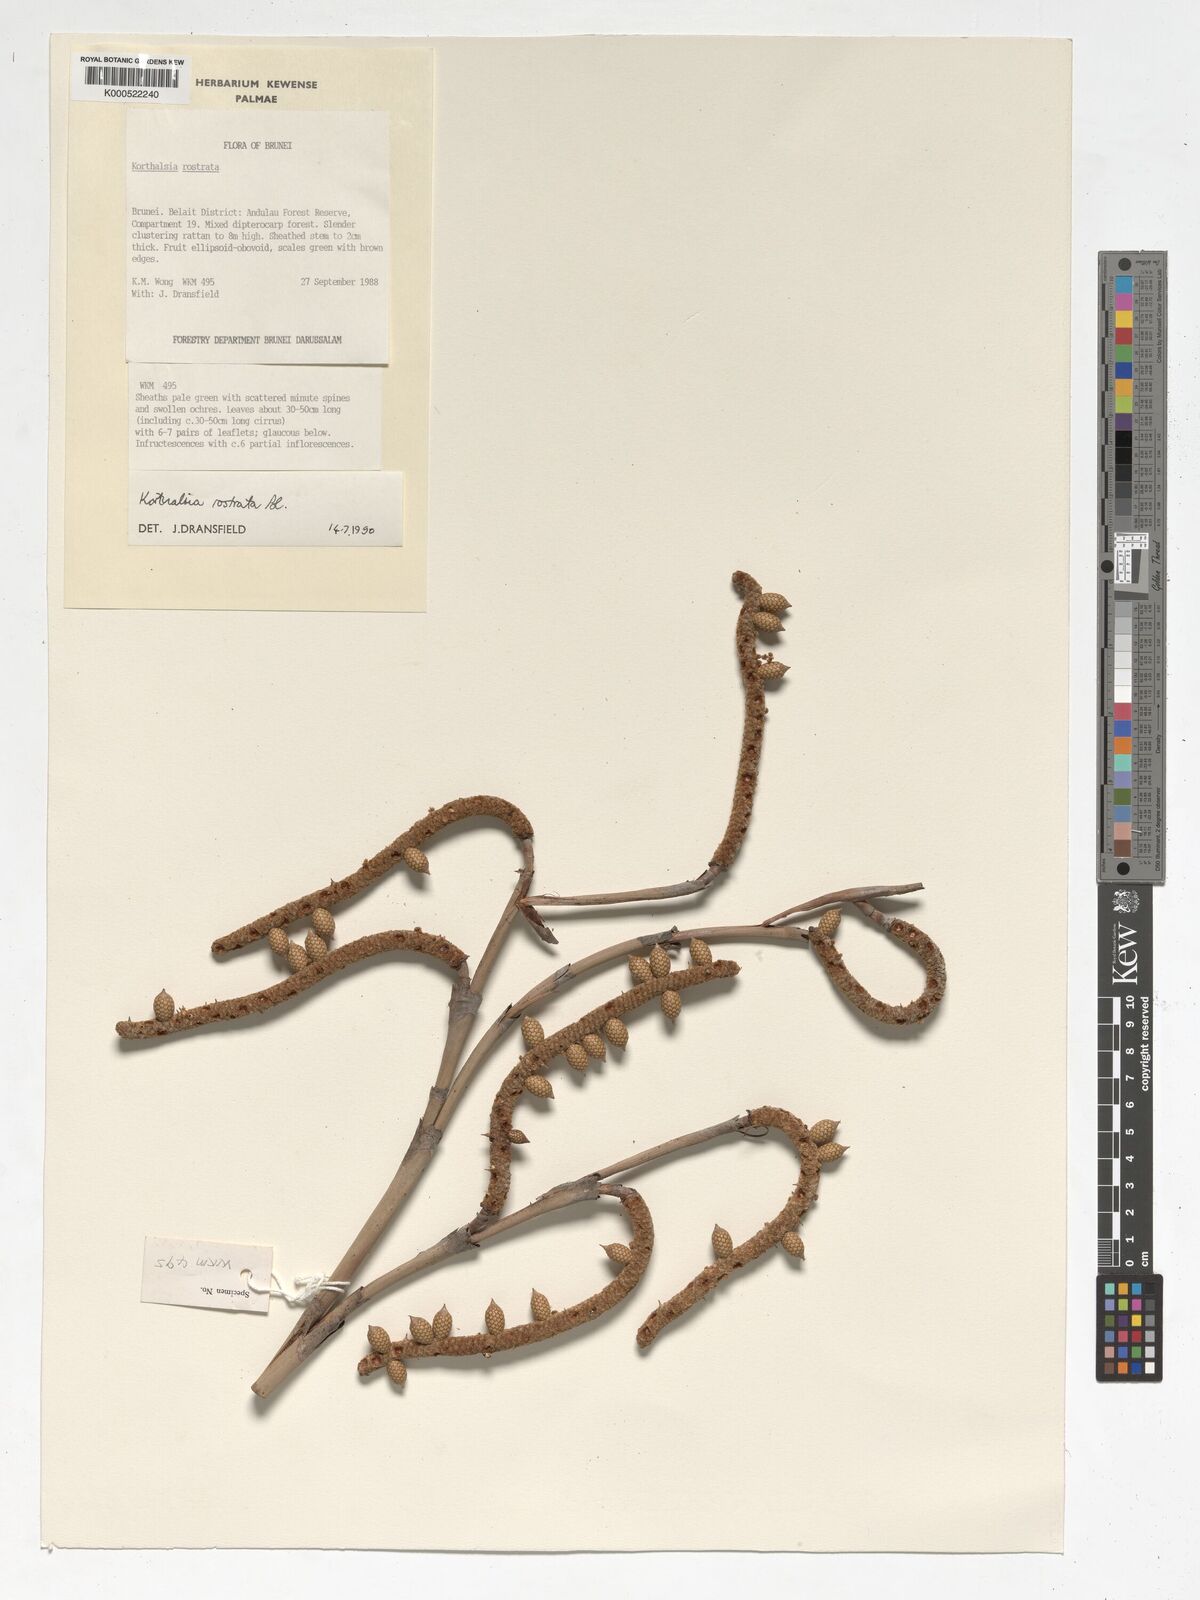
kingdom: Plantae
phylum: Tracheophyta
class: Liliopsida
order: Arecales
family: Arecaceae
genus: Korthalsia
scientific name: Korthalsia rostrata
